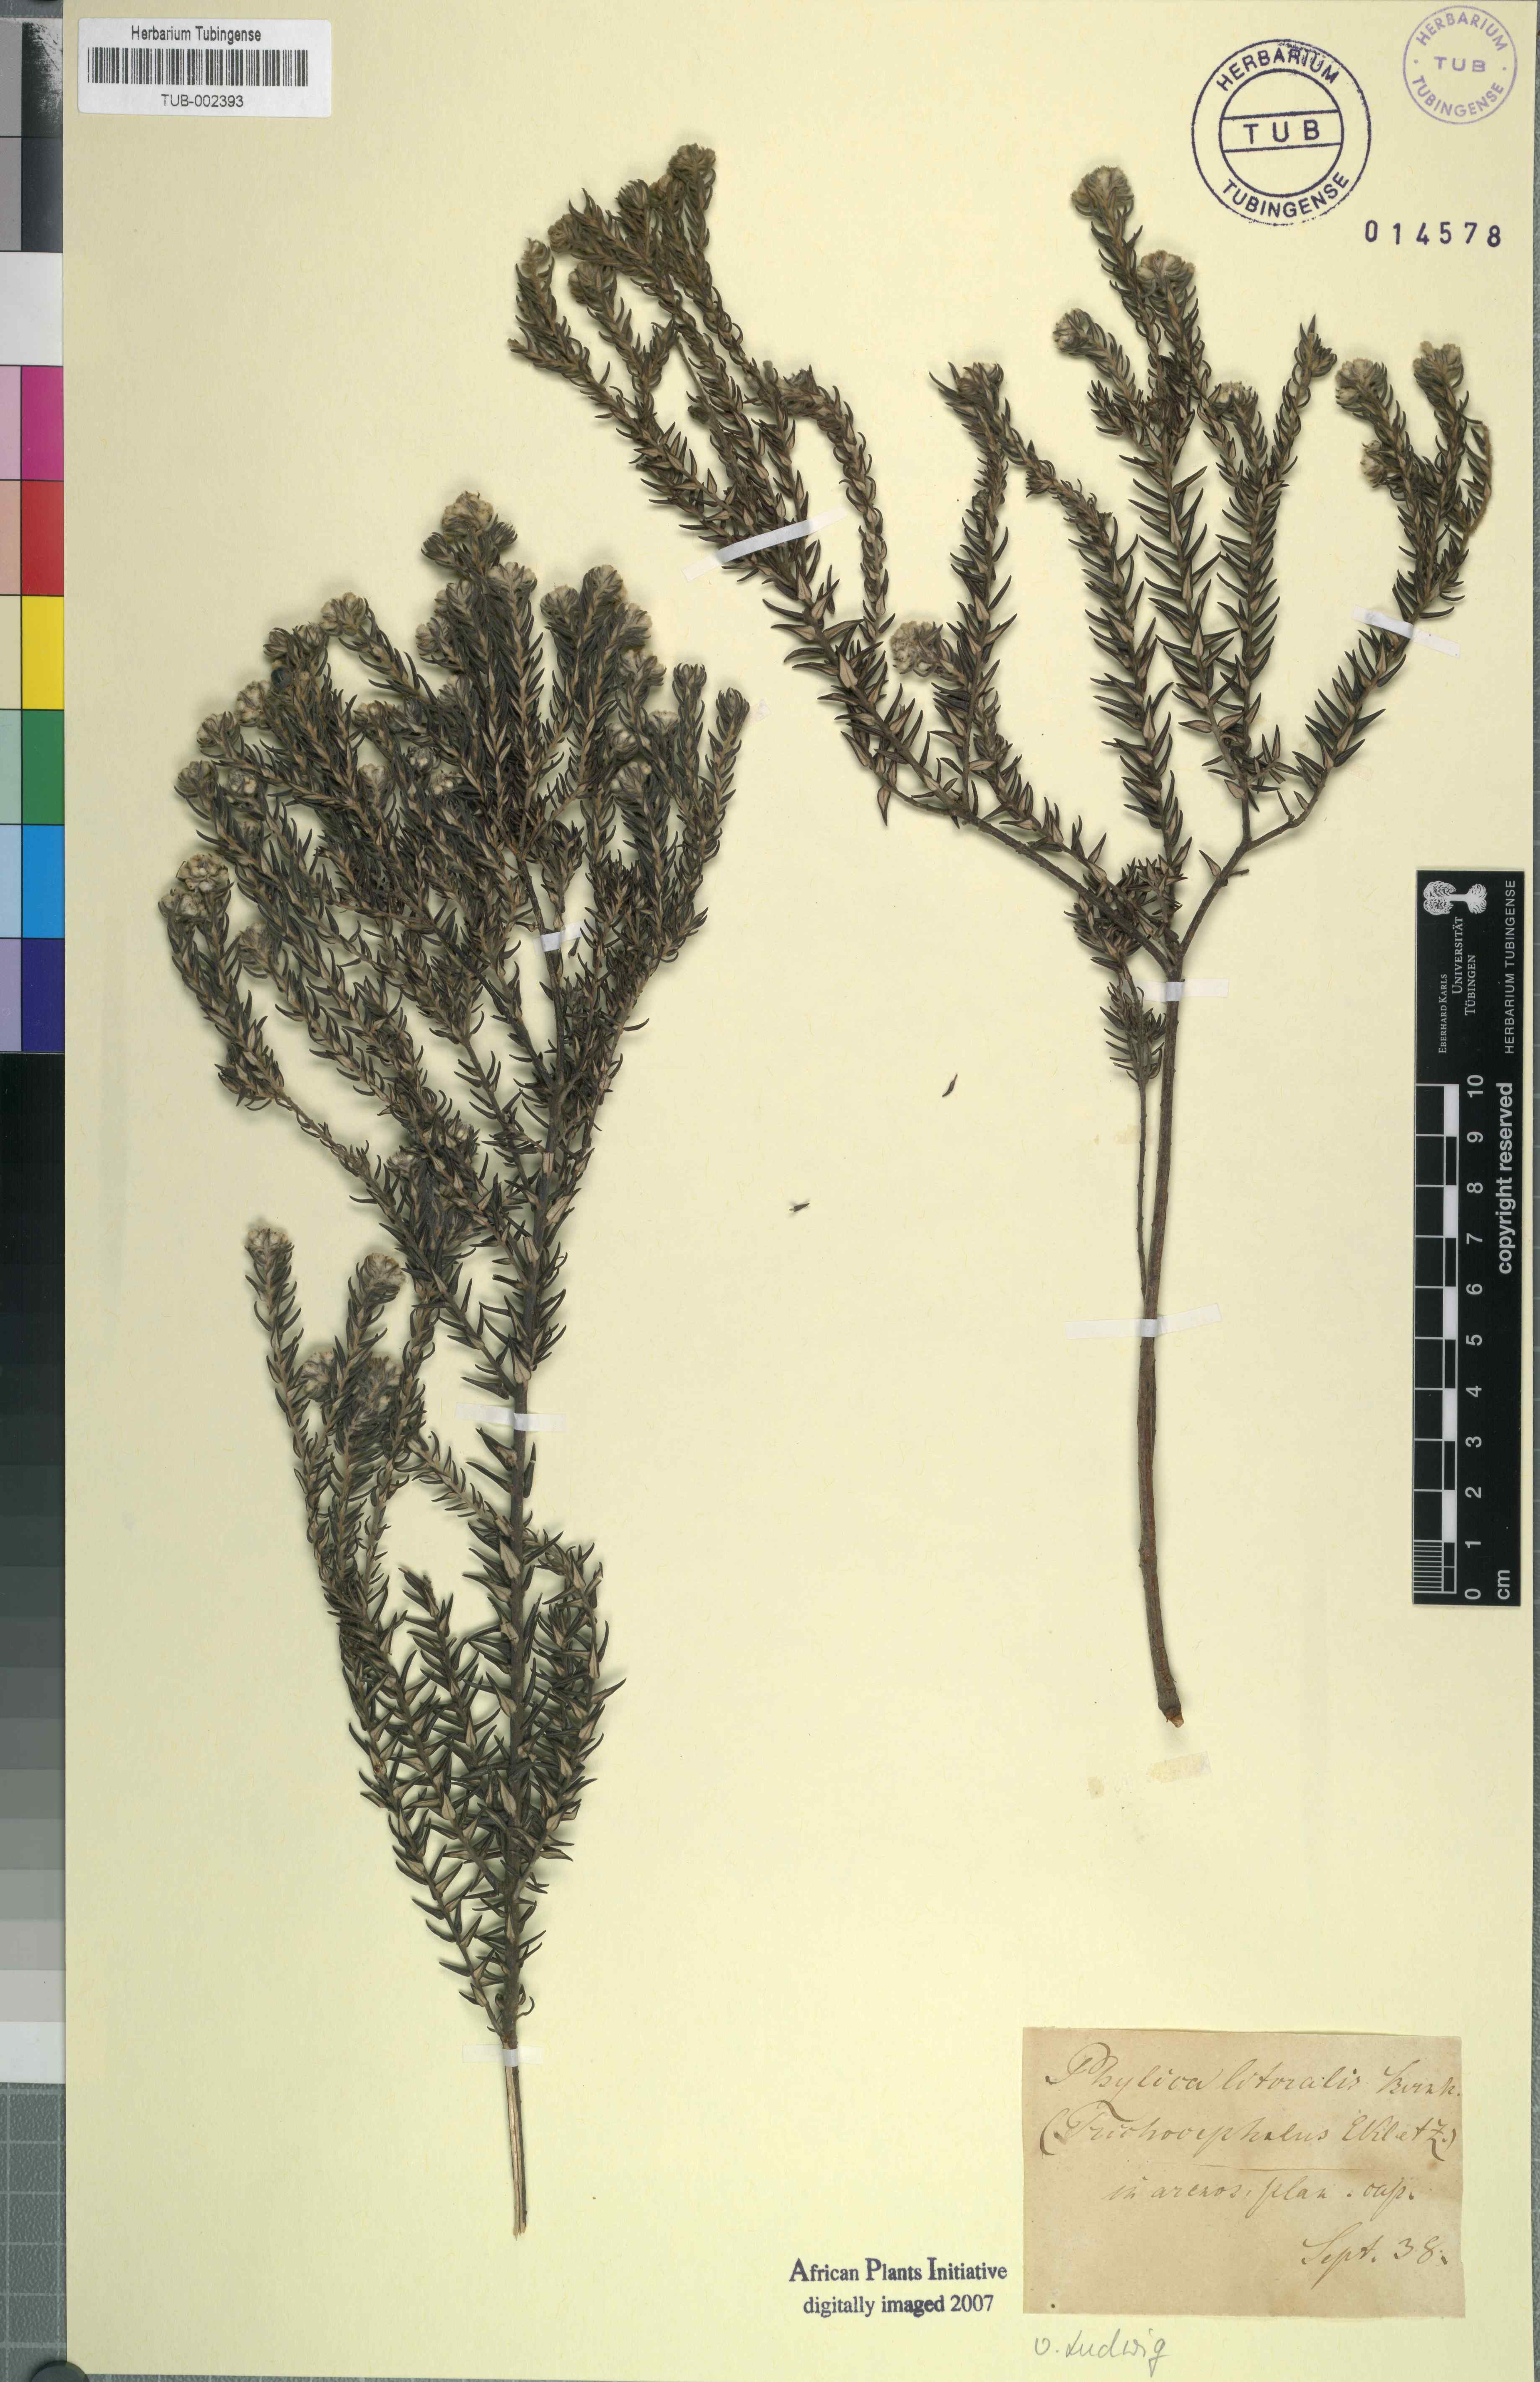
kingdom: Plantae
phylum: Tracheophyta
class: Magnoliopsida
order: Rosales
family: Rhamnaceae
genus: Phylica
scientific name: Phylica litoralis
